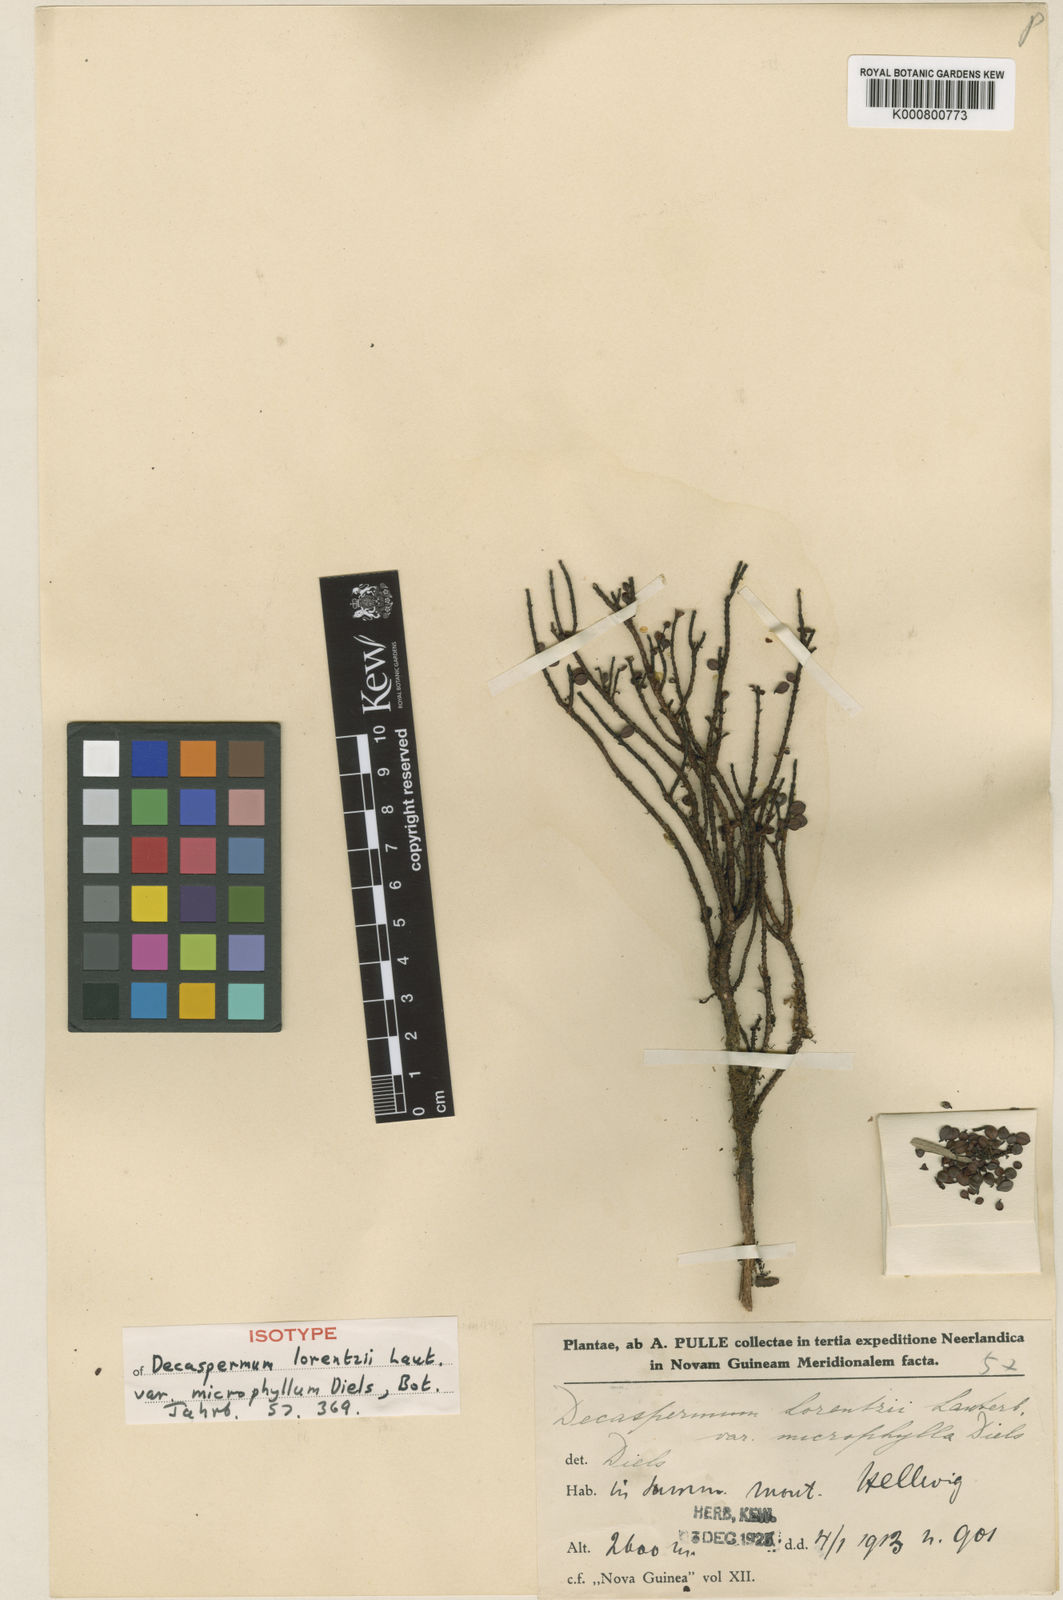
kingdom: Plantae
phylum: Tracheophyta
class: Magnoliopsida
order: Myrtales
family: Myrtaceae
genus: Decaspermum
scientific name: Decaspermum nivale
